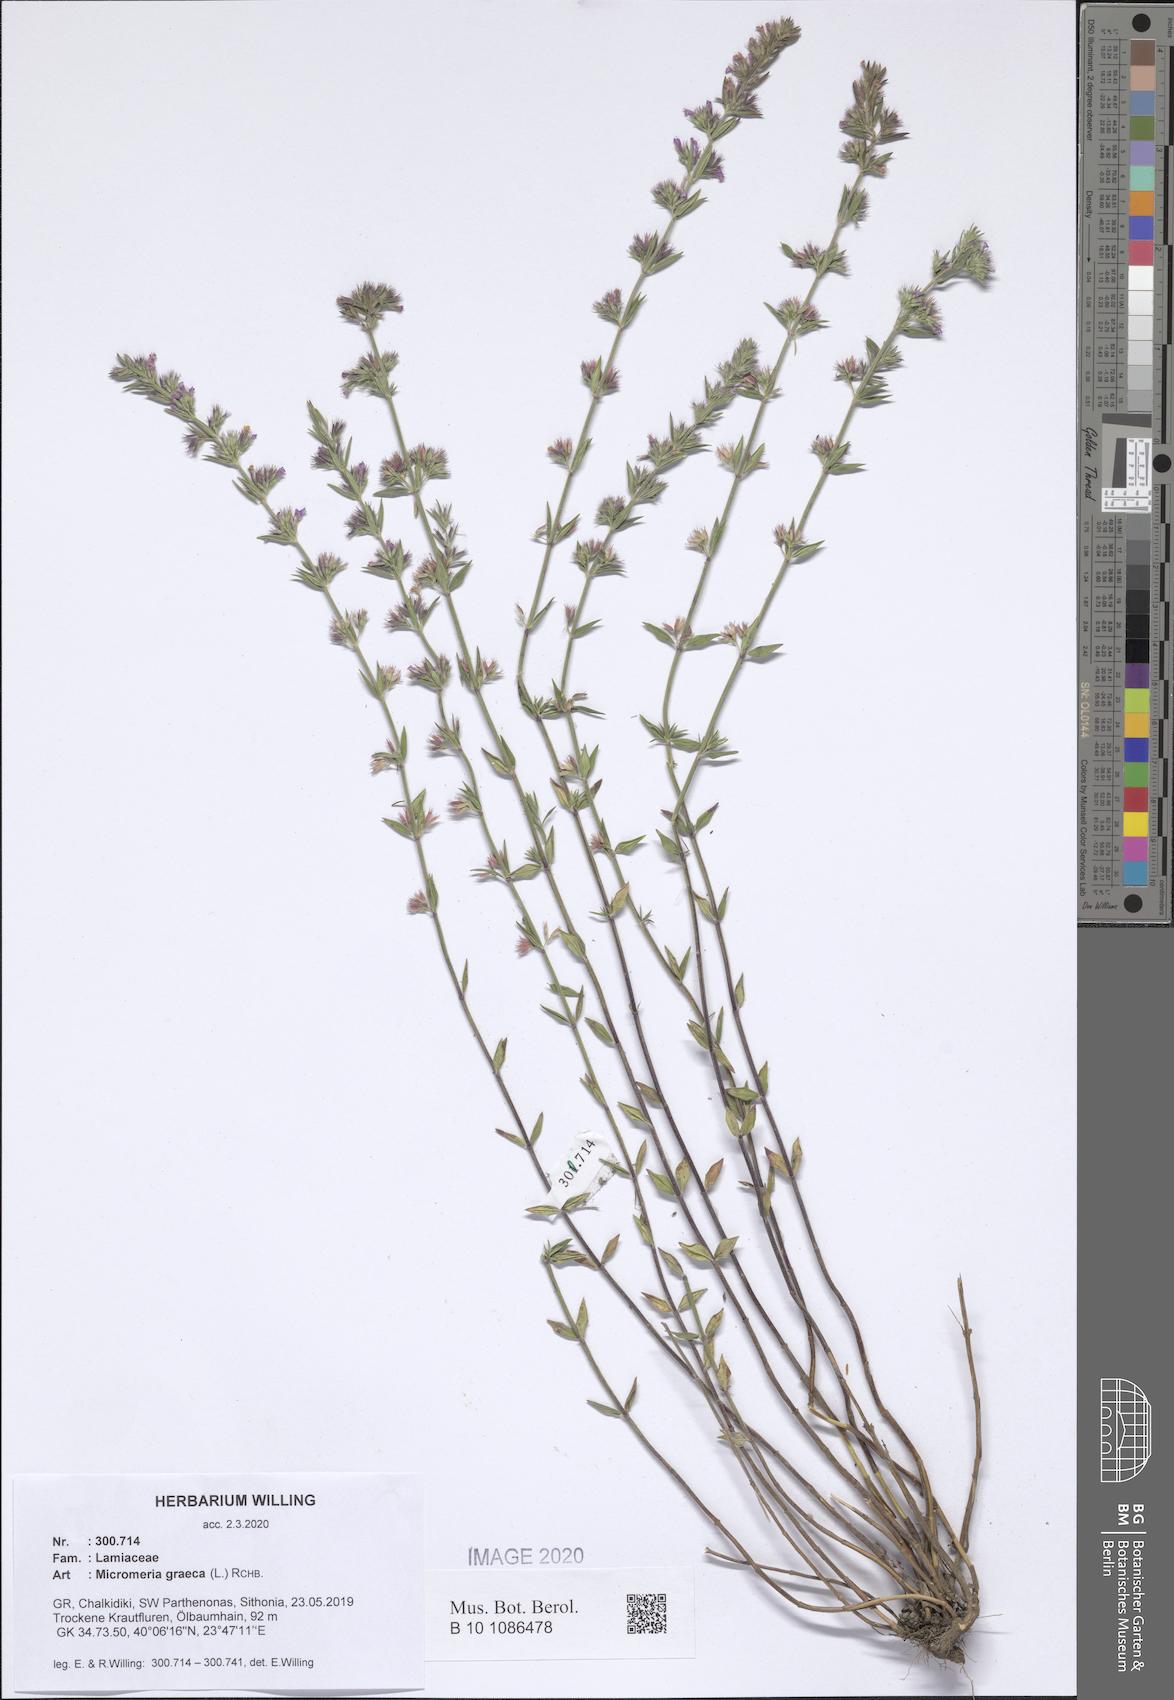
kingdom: Plantae
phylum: Tracheophyta
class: Magnoliopsida
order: Lamiales
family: Lamiaceae
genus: Micromeria
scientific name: Micromeria graeca
